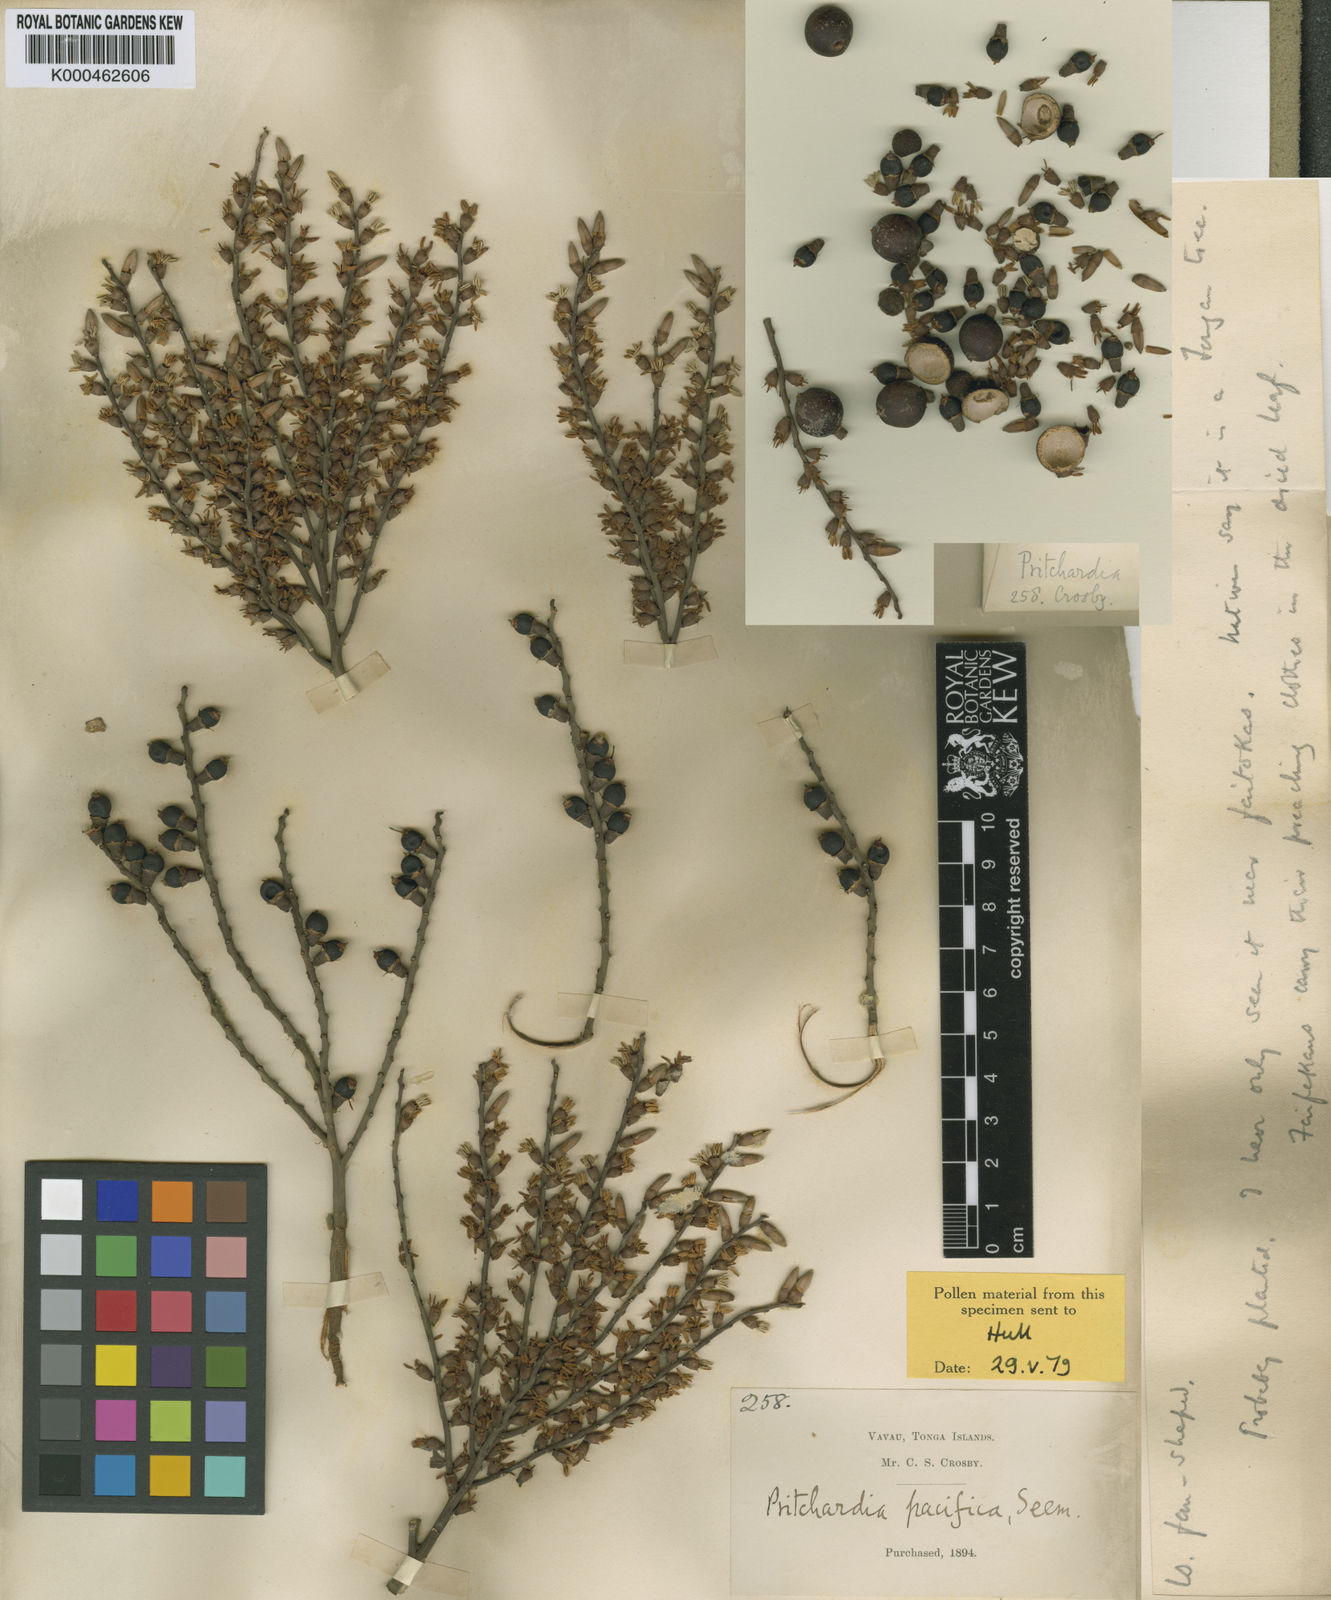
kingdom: Plantae
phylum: Tracheophyta
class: Liliopsida
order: Arecales
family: Arecaceae
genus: Pritchardia
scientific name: Pritchardia pacifica
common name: Fiji fan palm
